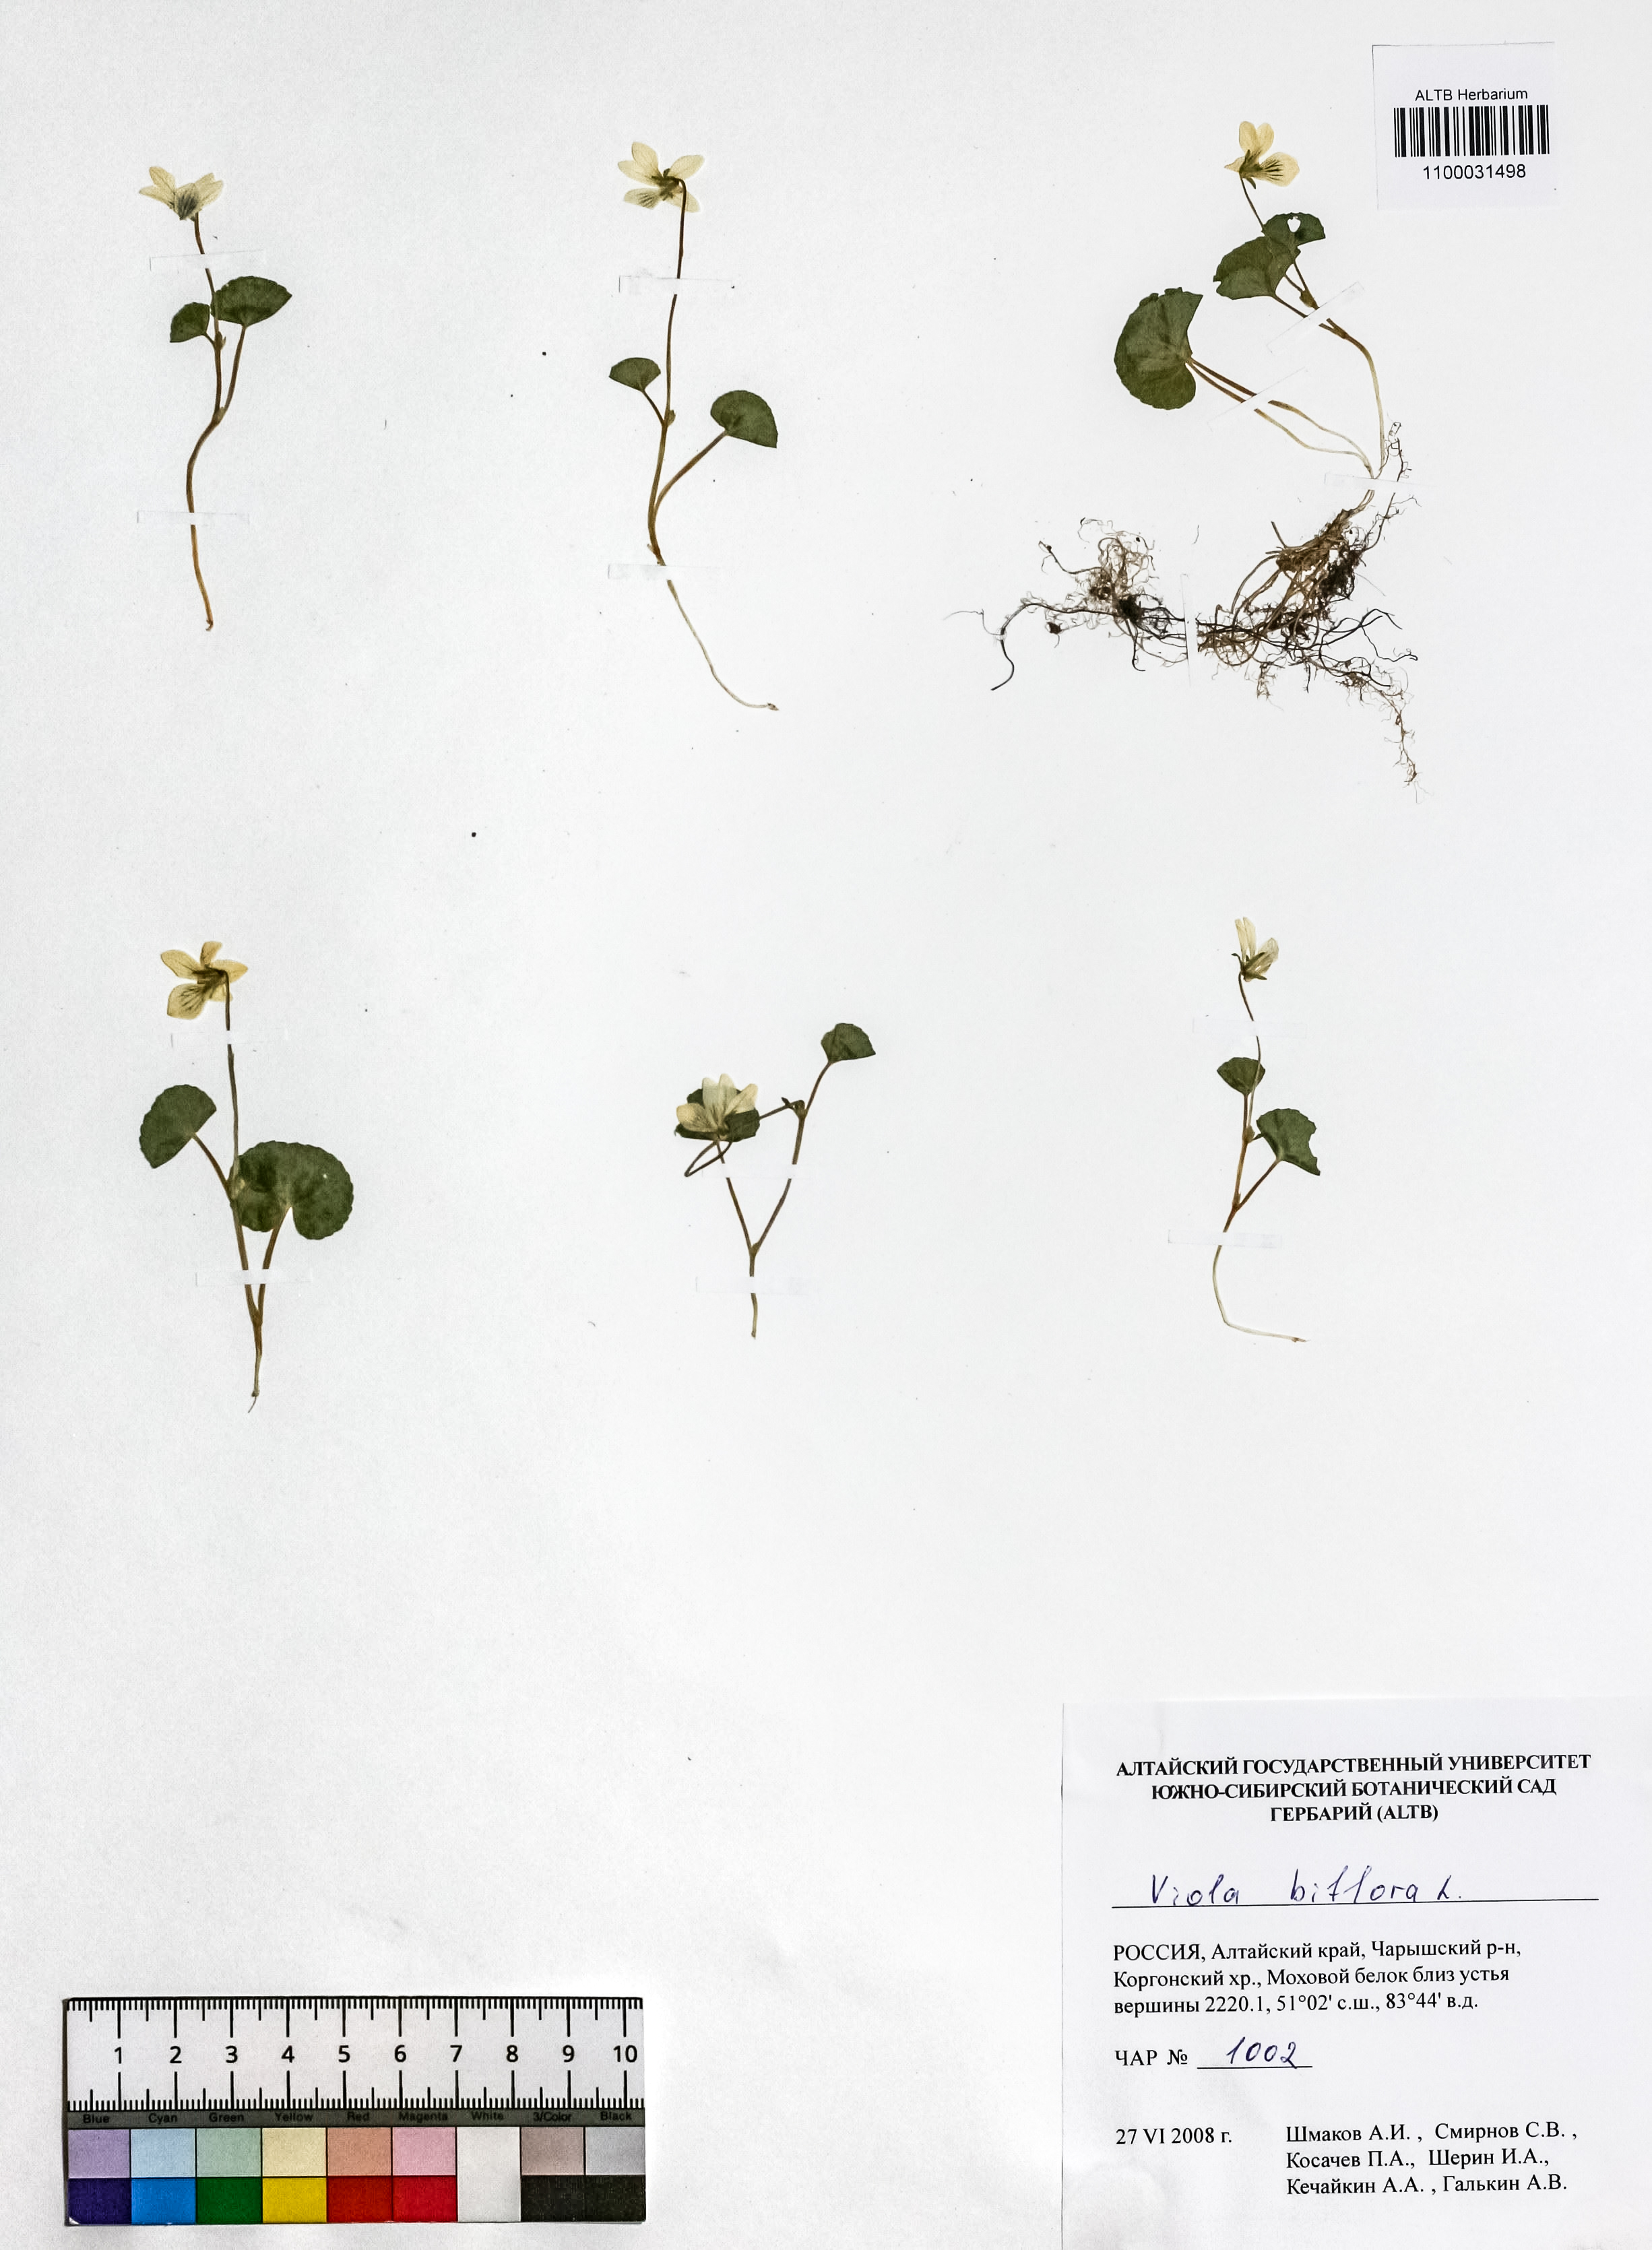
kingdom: Plantae
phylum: Tracheophyta
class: Magnoliopsida
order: Malpighiales
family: Violaceae
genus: Viola
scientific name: Viola biflora
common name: Alpine yellow violet
